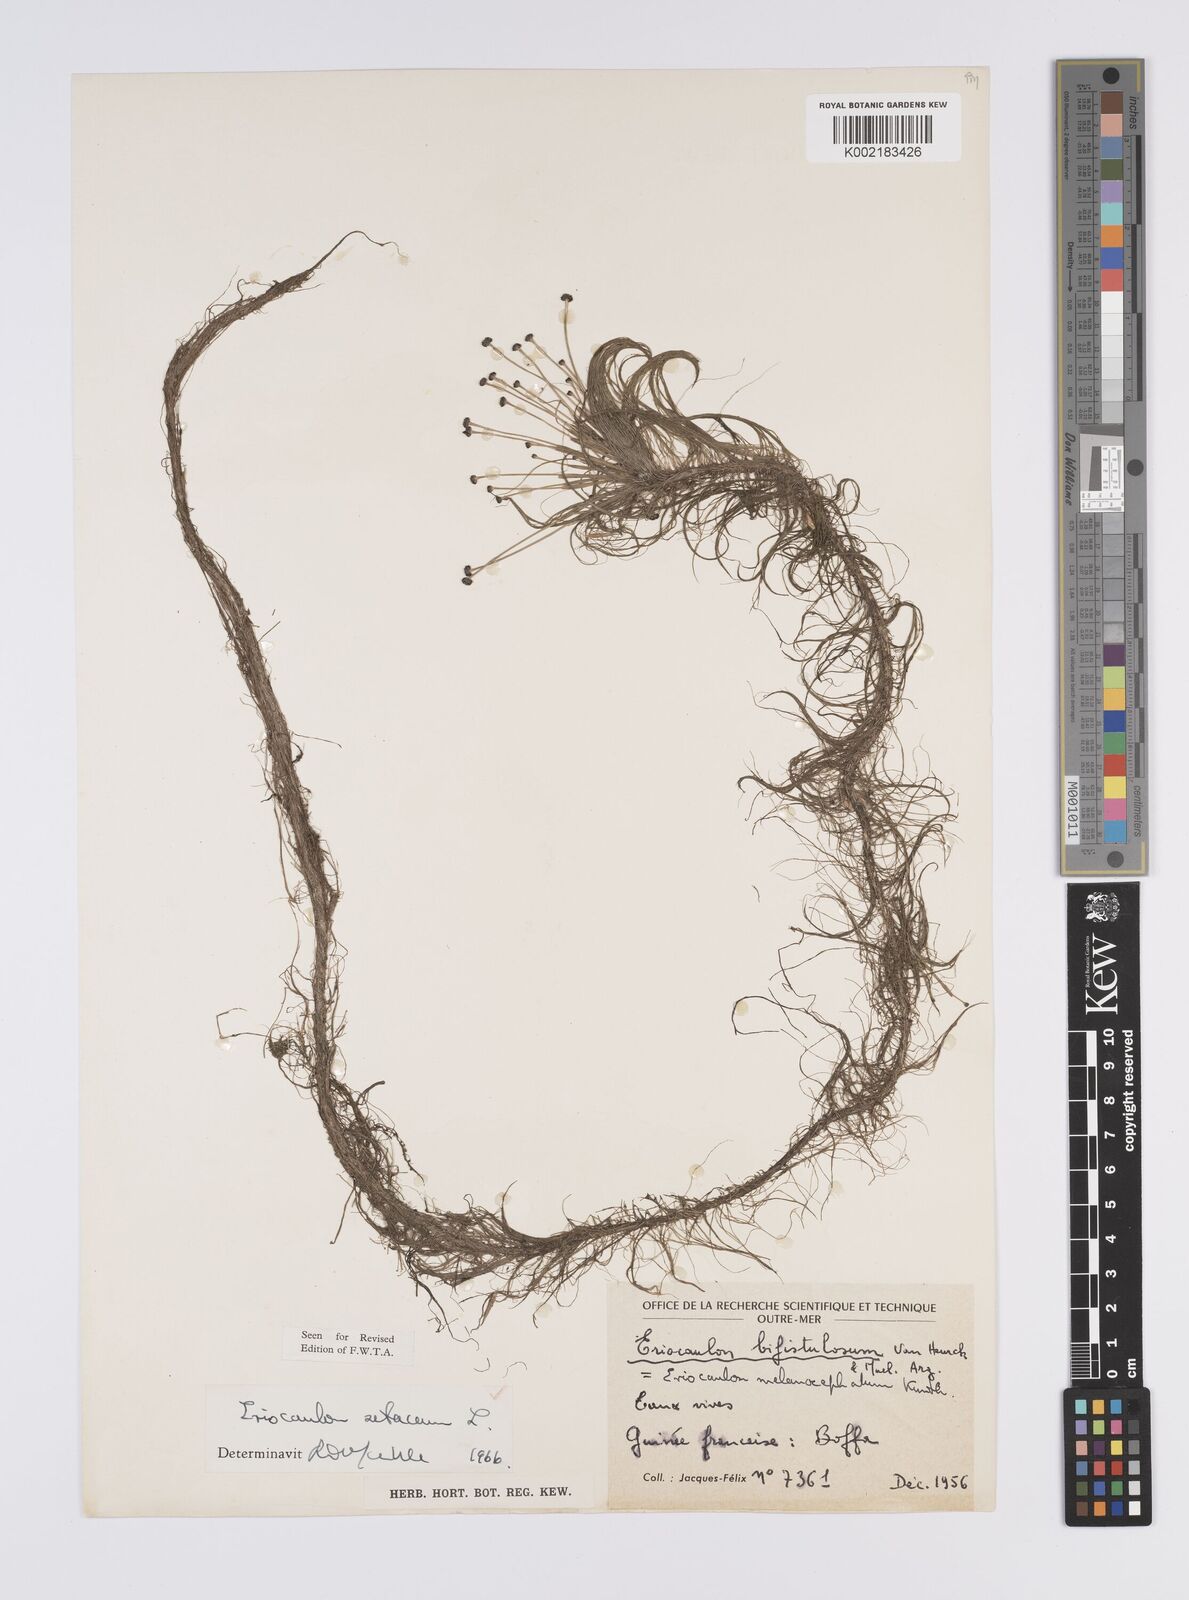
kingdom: Plantae
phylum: Tracheophyta
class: Liliopsida
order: Poales
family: Eriocaulaceae
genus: Eriocaulon
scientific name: Eriocaulon setaceum
